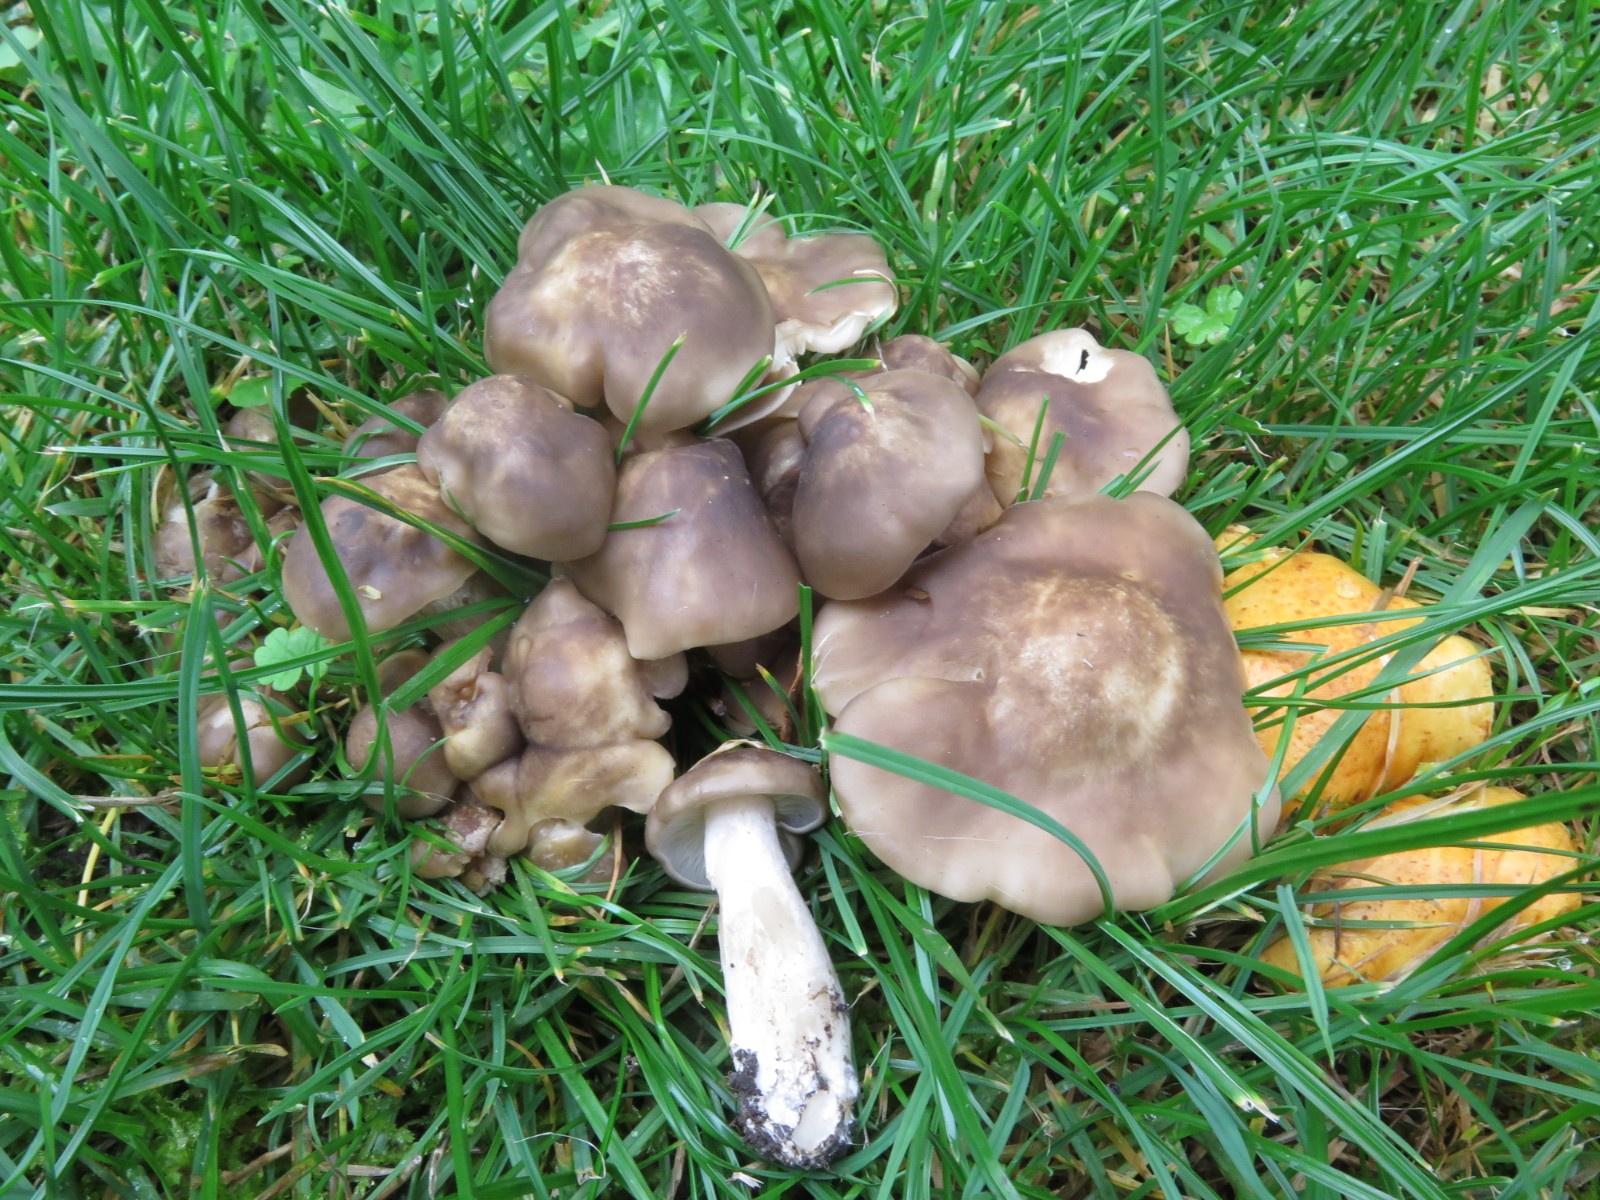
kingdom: Fungi
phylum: Basidiomycota
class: Agaricomycetes
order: Agaricales
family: Lyophyllaceae
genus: Lyophyllum
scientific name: Lyophyllum decastes
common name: røggrå gråblad
